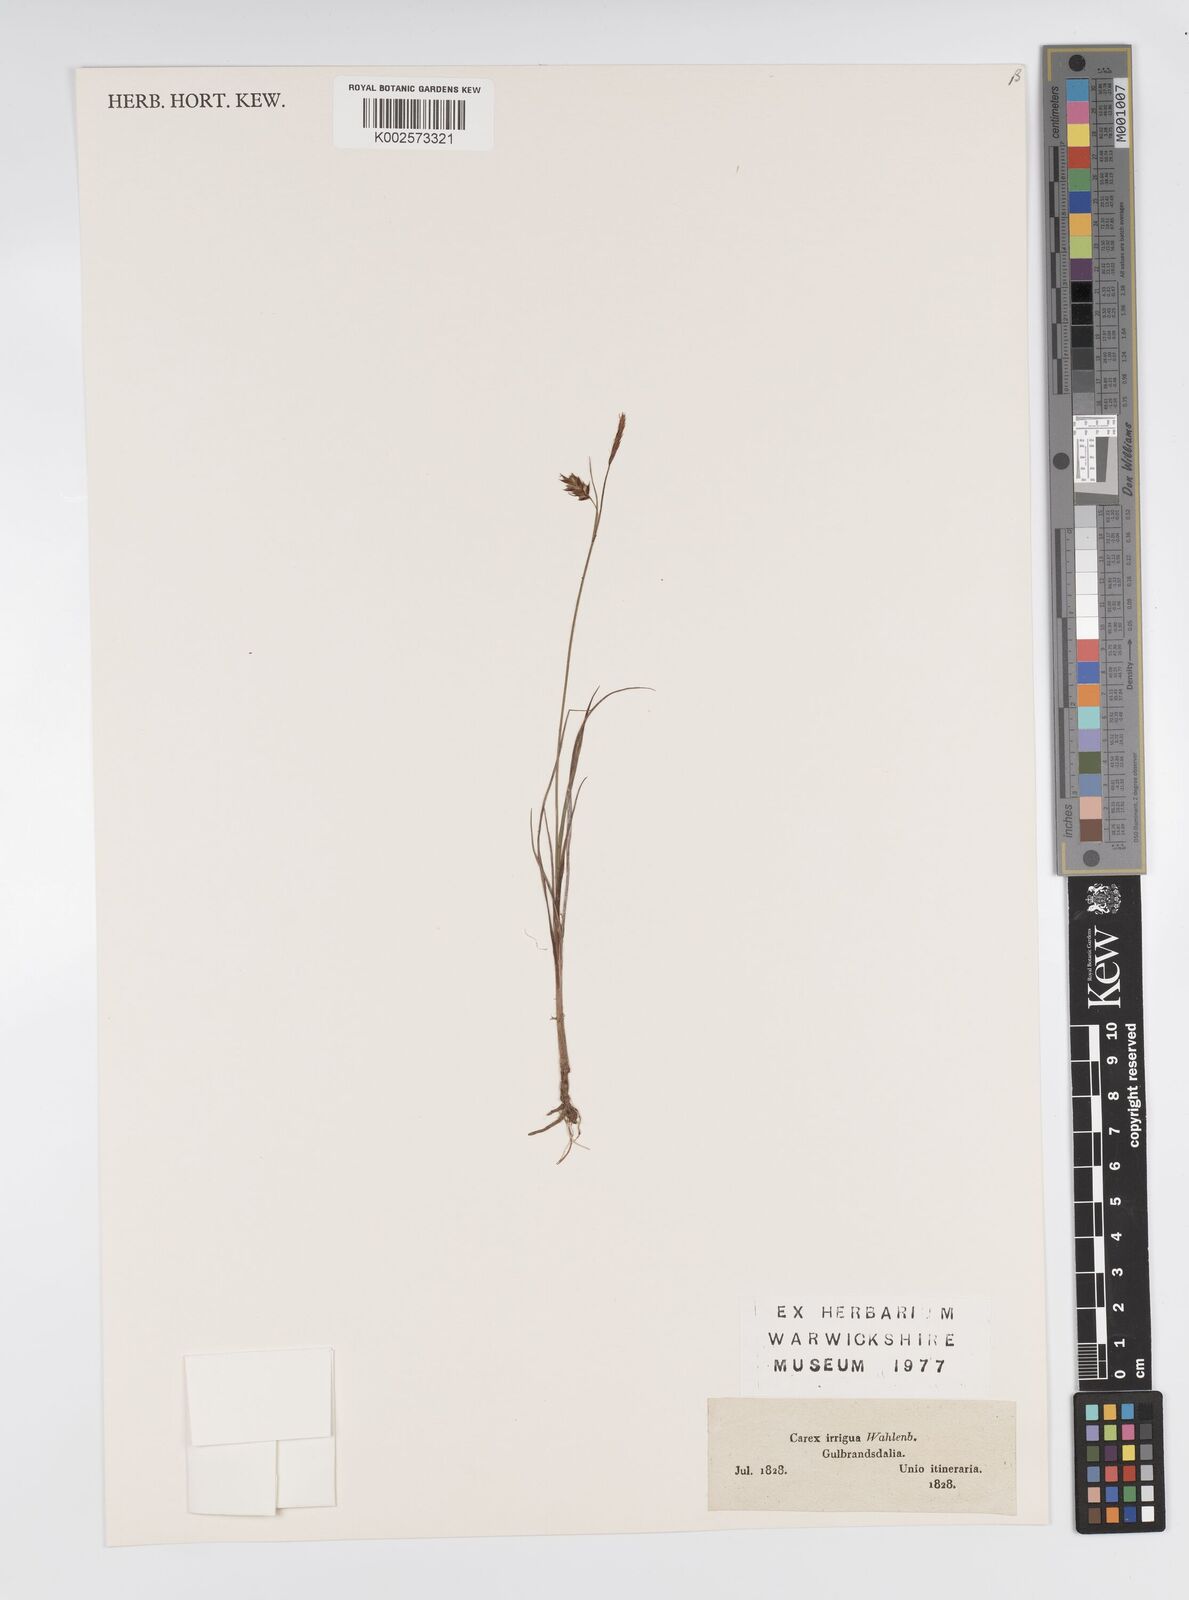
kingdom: Plantae
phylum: Tracheophyta
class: Liliopsida
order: Poales
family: Cyperaceae
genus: Carex
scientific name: Carex magellanica
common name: Bog sedge
